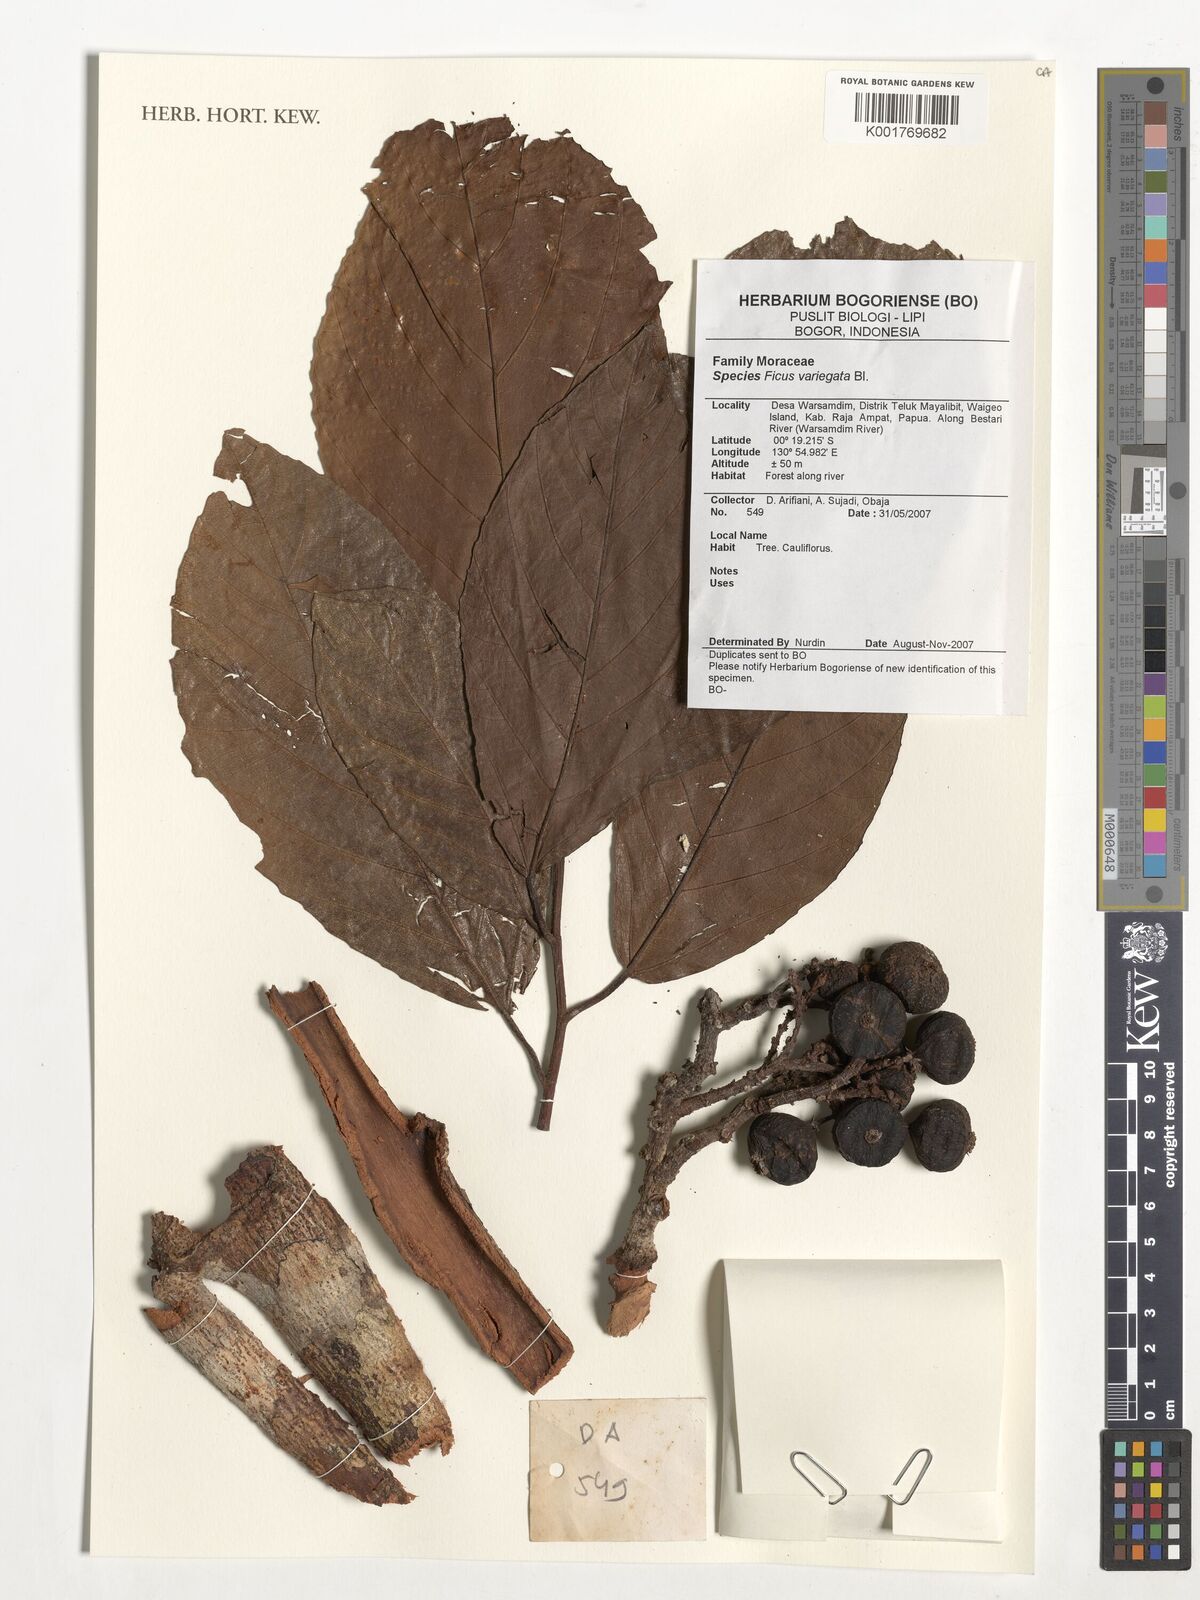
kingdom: Plantae
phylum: Tracheophyta
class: Magnoliopsida
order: Rosales
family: Moraceae
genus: Ficus
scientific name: Ficus variegata
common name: Variegated fig
